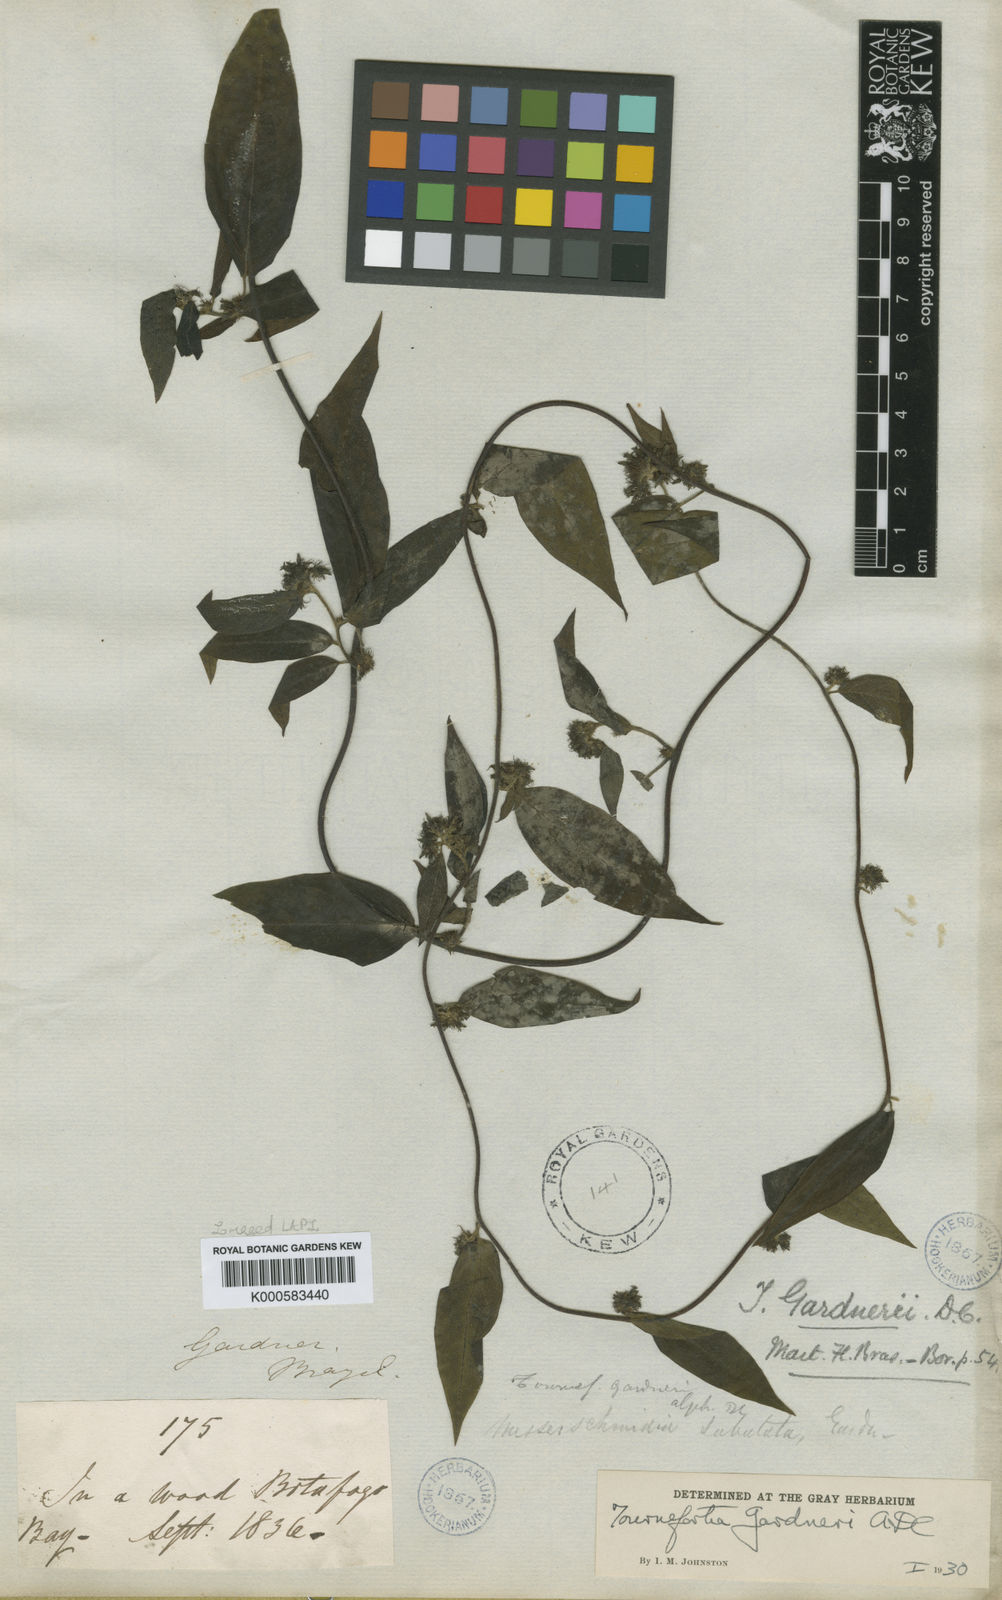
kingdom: Plantae
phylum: Tracheophyta
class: Magnoliopsida
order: Boraginales
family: Heliotropiaceae
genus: Myriopus
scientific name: Myriopus gardneri
